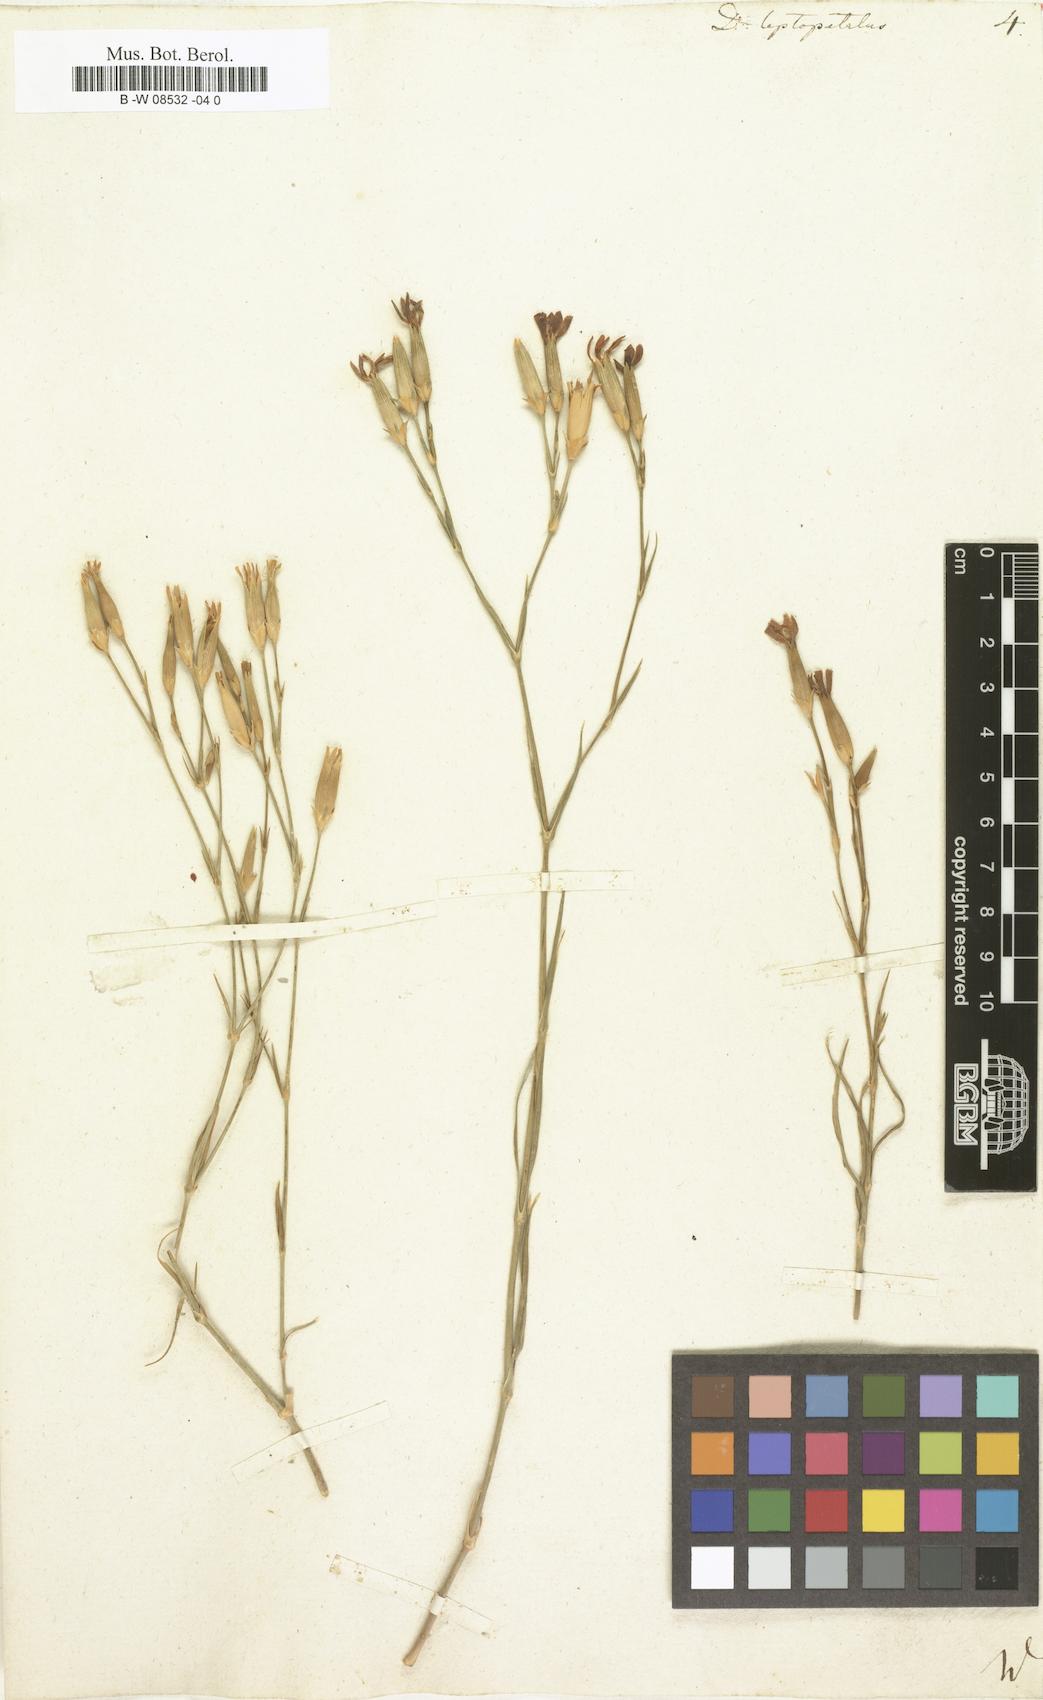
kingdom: Plantae
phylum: Tracheophyta
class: Magnoliopsida
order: Caryophyllales
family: Caryophyllaceae
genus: Dianthus
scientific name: Dianthus leptopetalus
